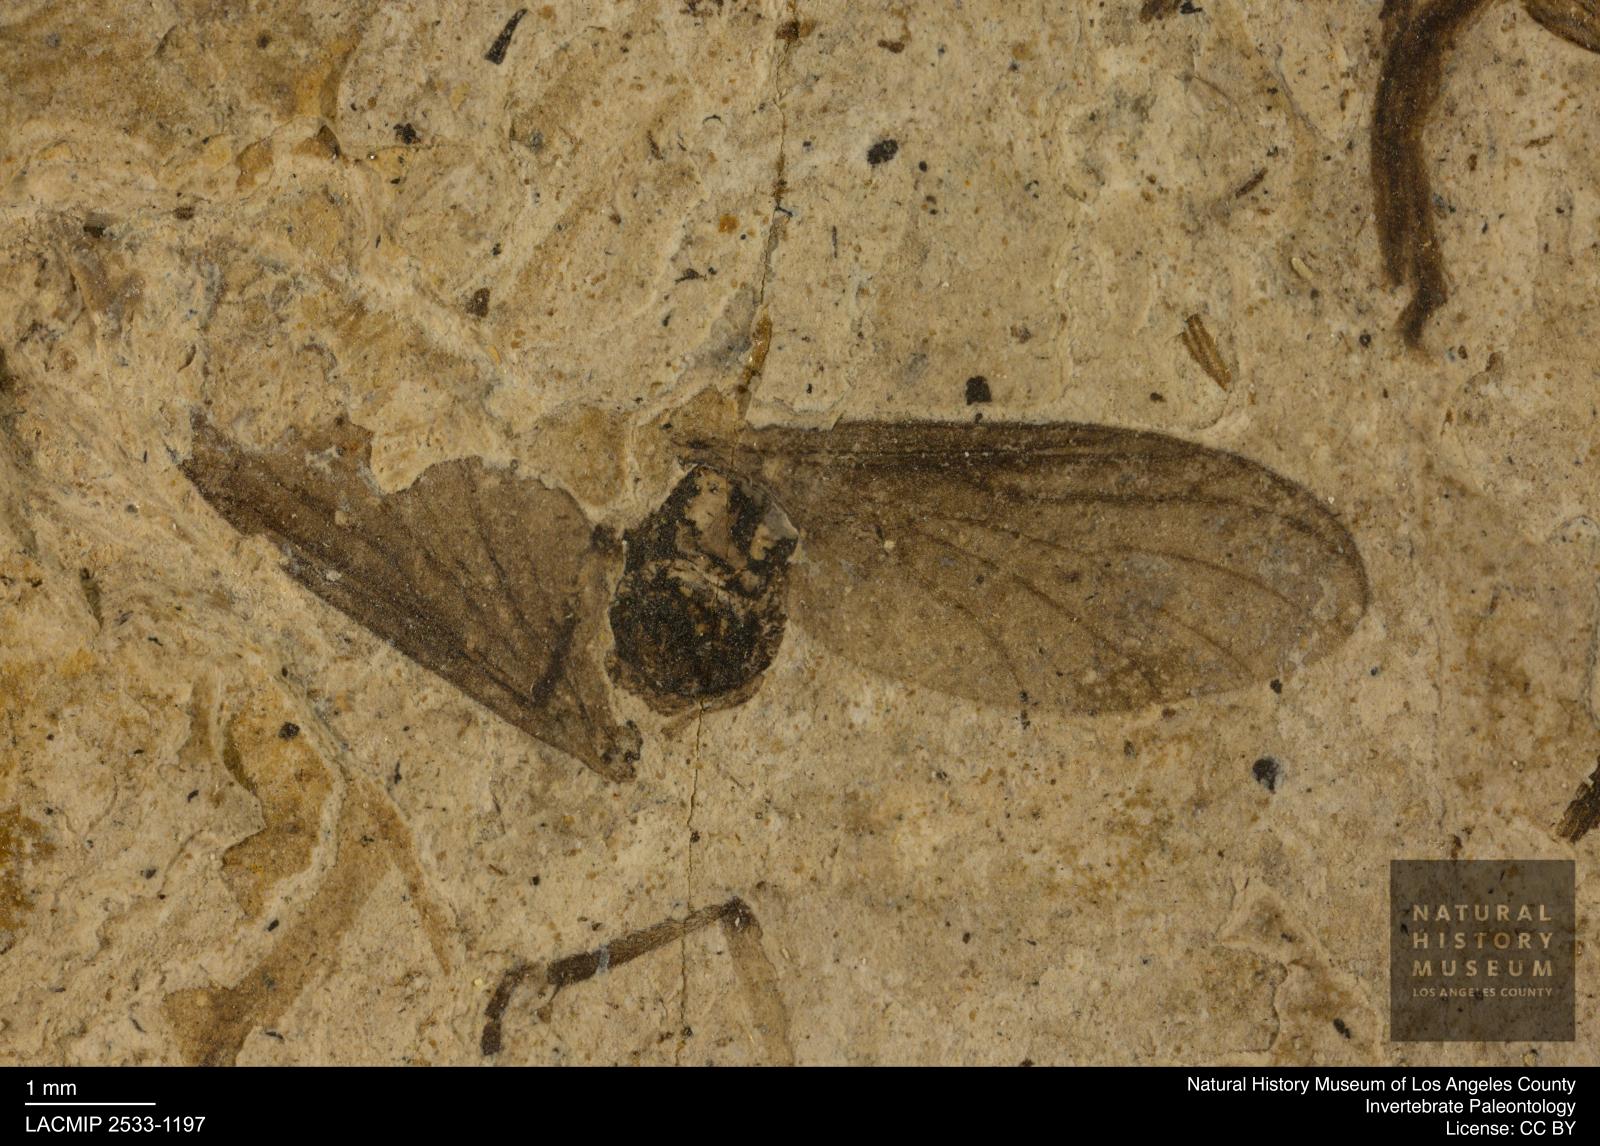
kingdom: Animalia
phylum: Arthropoda
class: Insecta
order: Diptera
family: Bibionidae
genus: Plecia
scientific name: Plecia stygia
